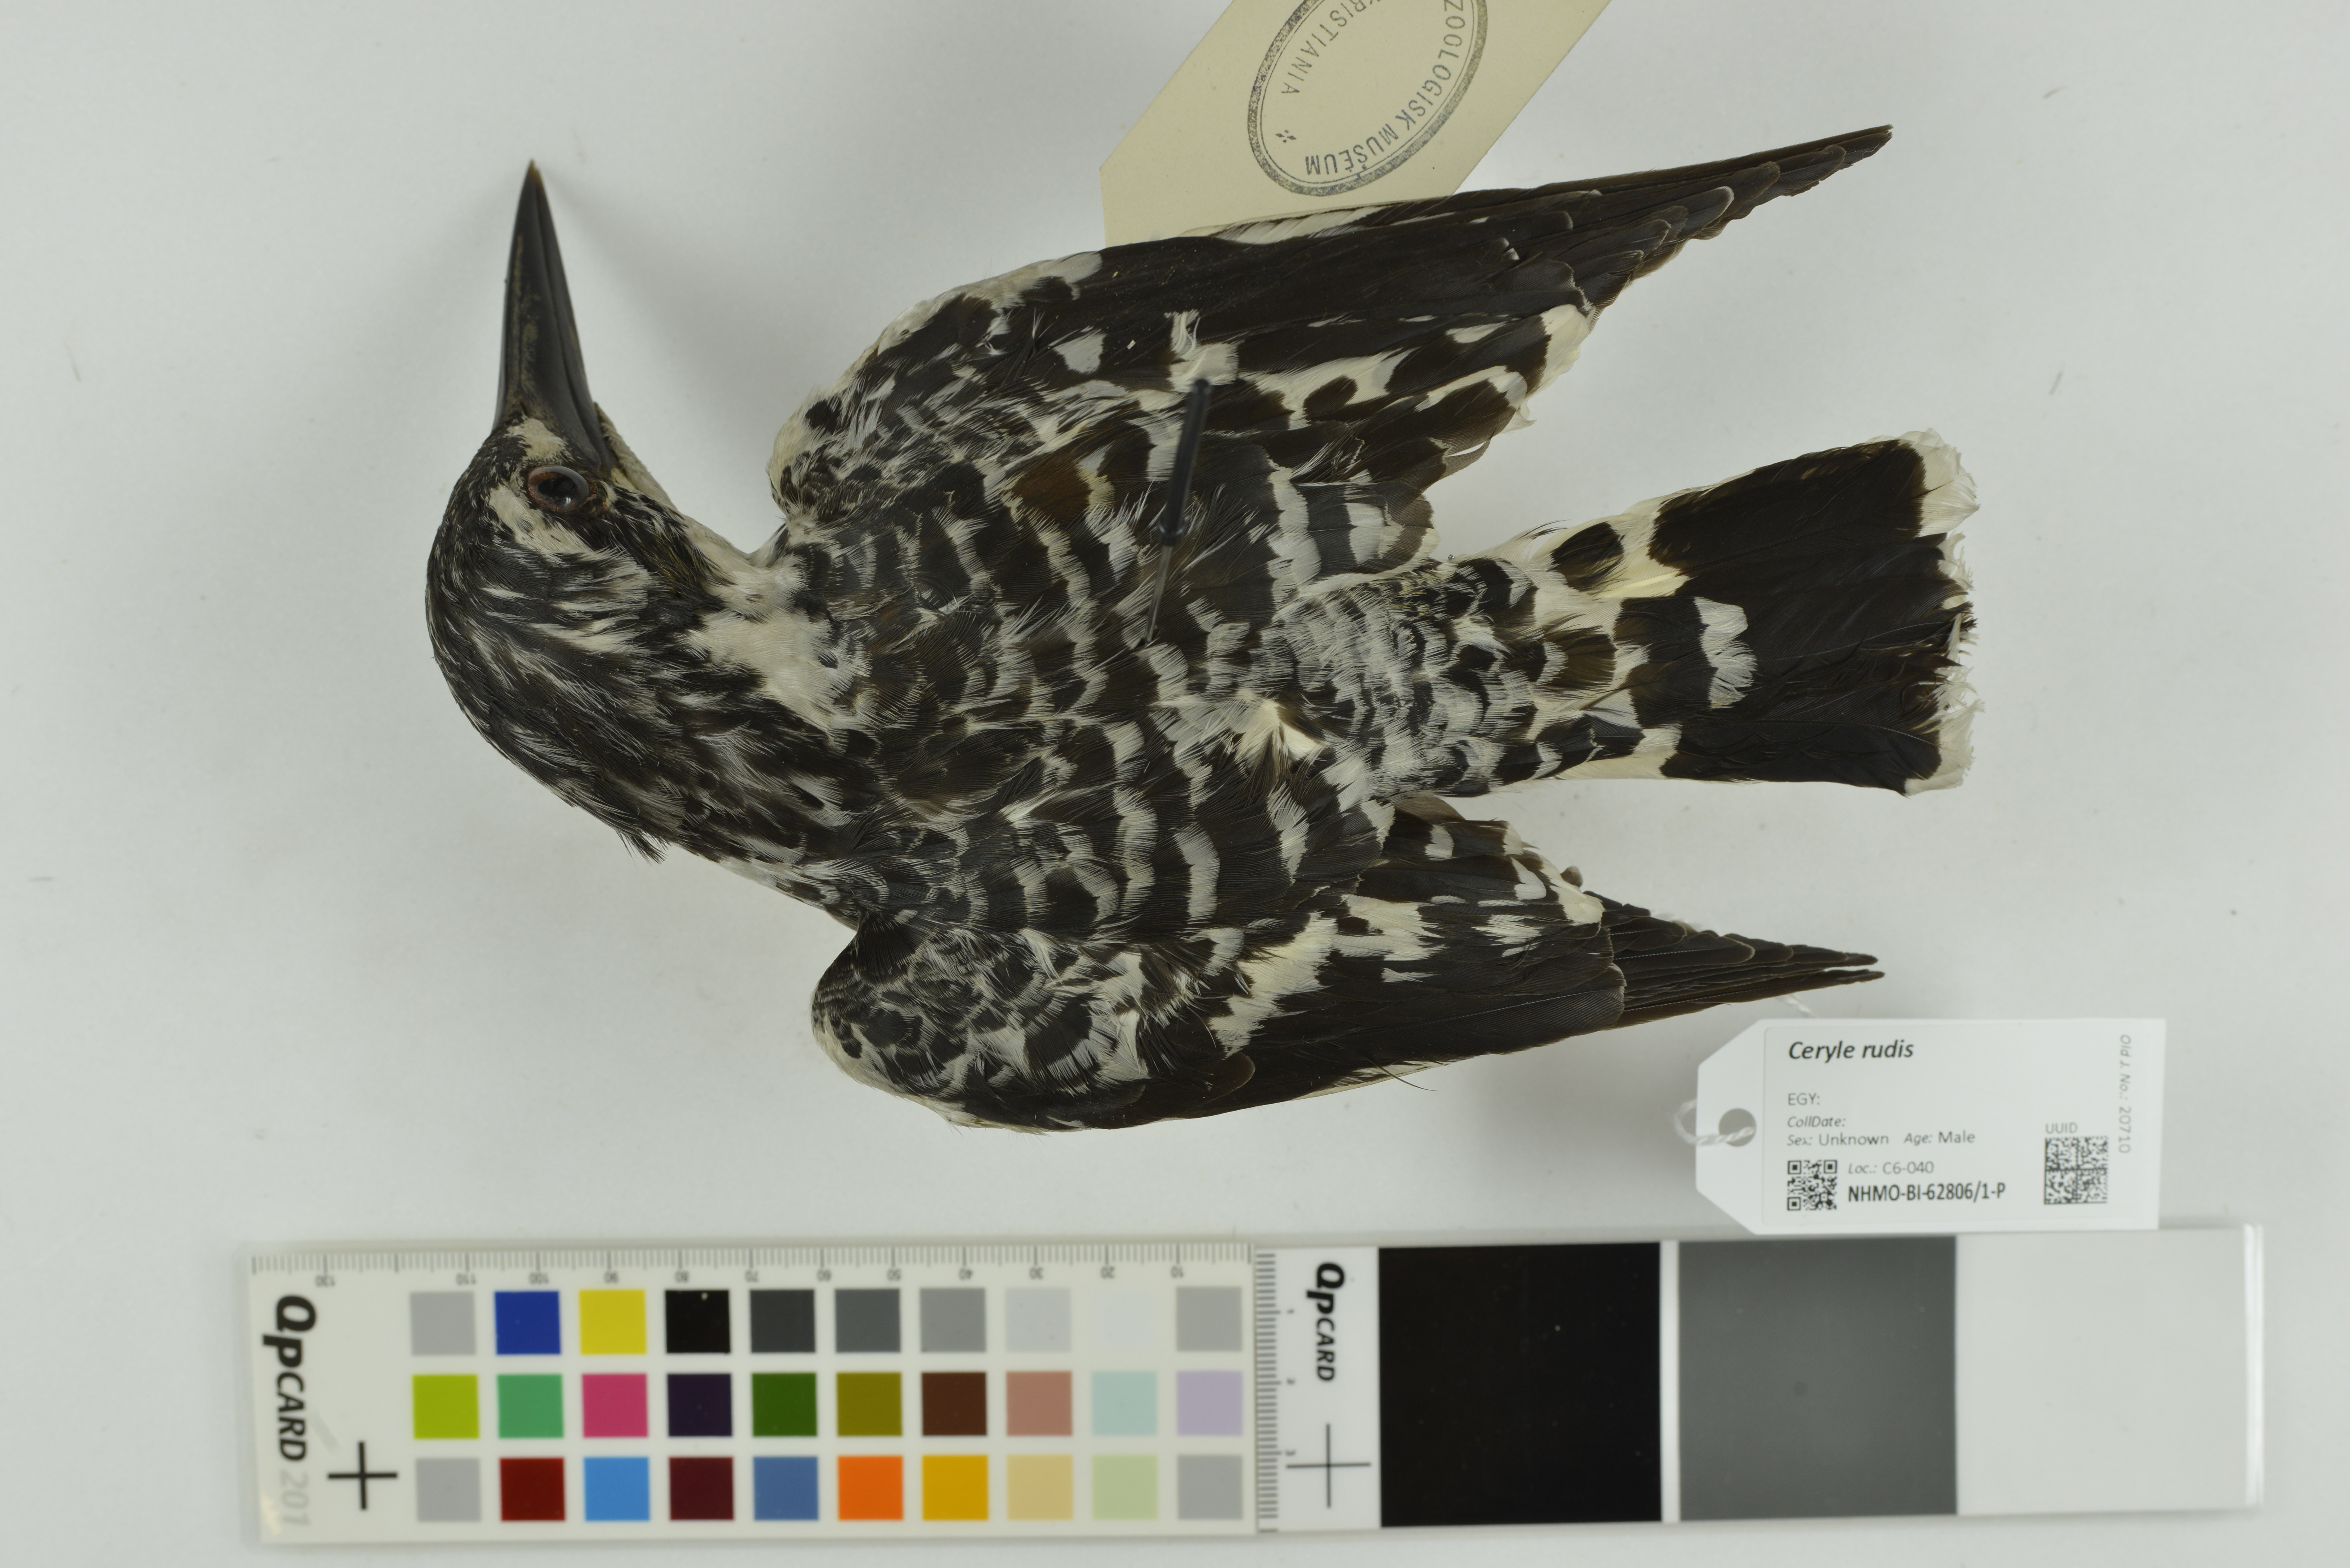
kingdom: Animalia
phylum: Chordata
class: Aves
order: Coraciiformes
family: Alcedinidae
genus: Ceryle
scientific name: Ceryle rudis
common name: Pied kingfisher
